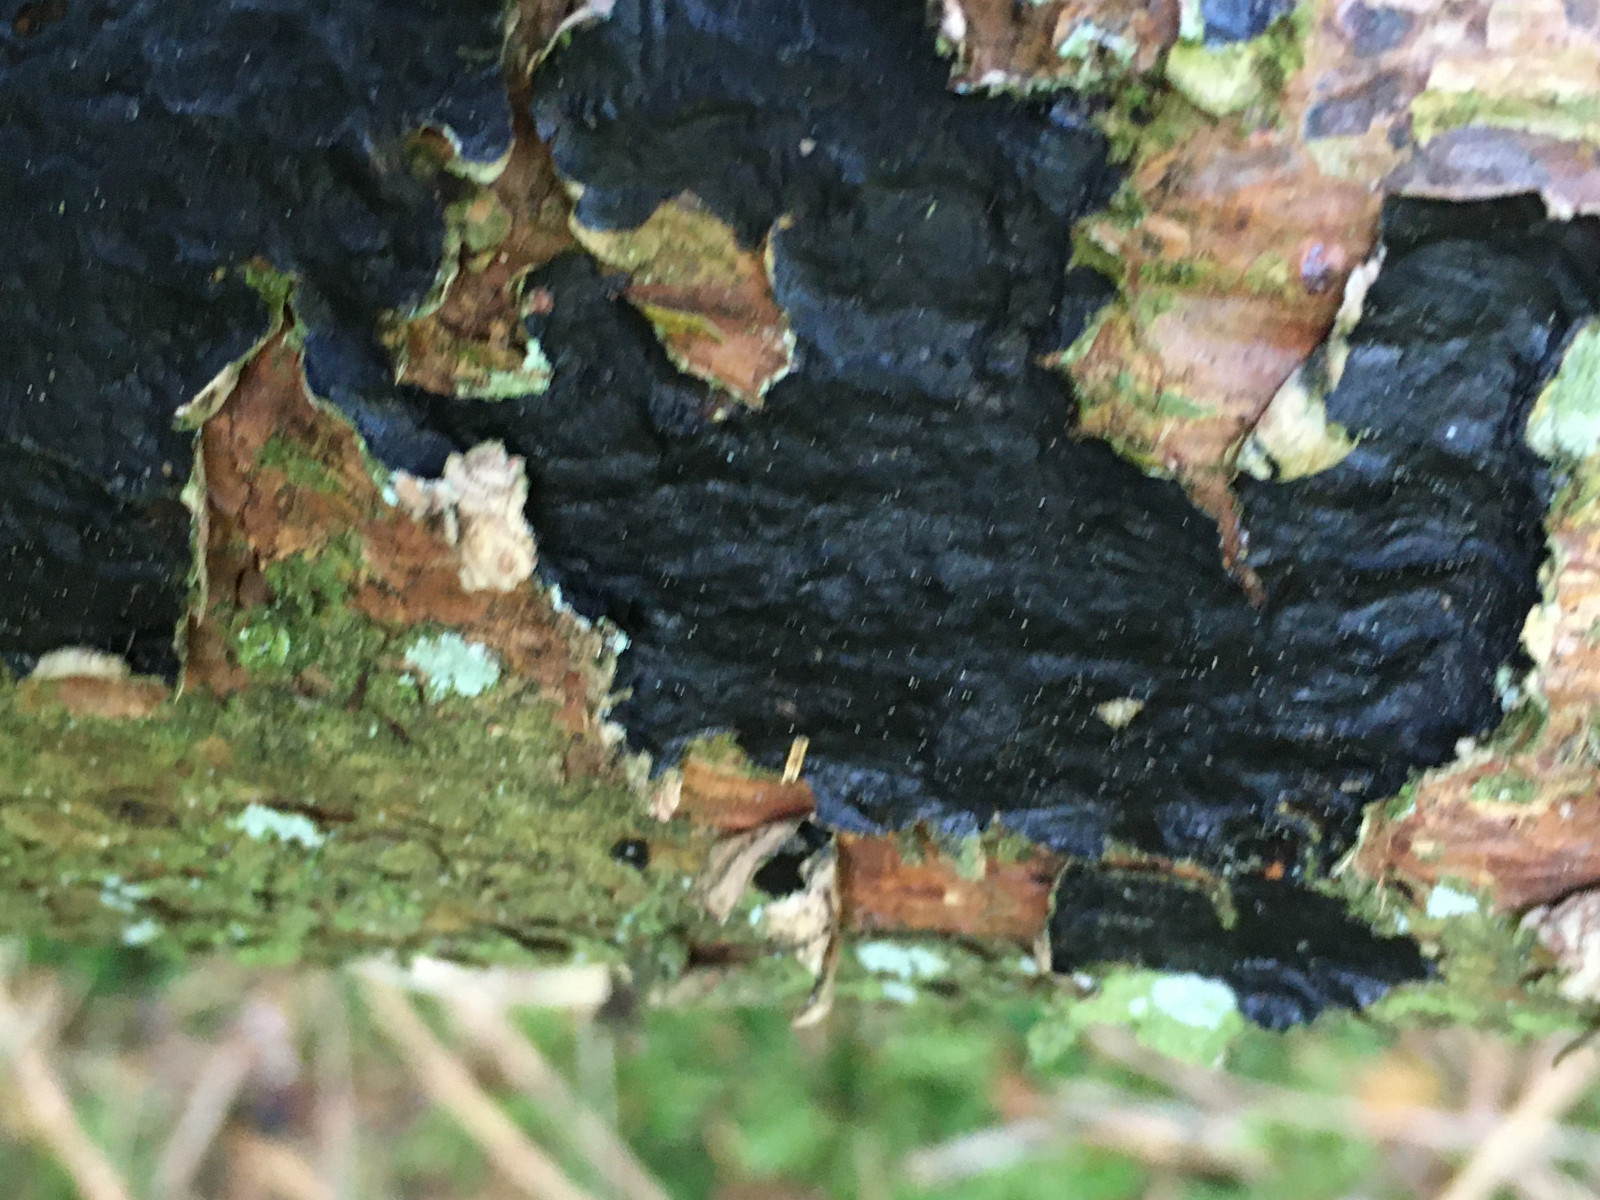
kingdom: Fungi
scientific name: Fungi
